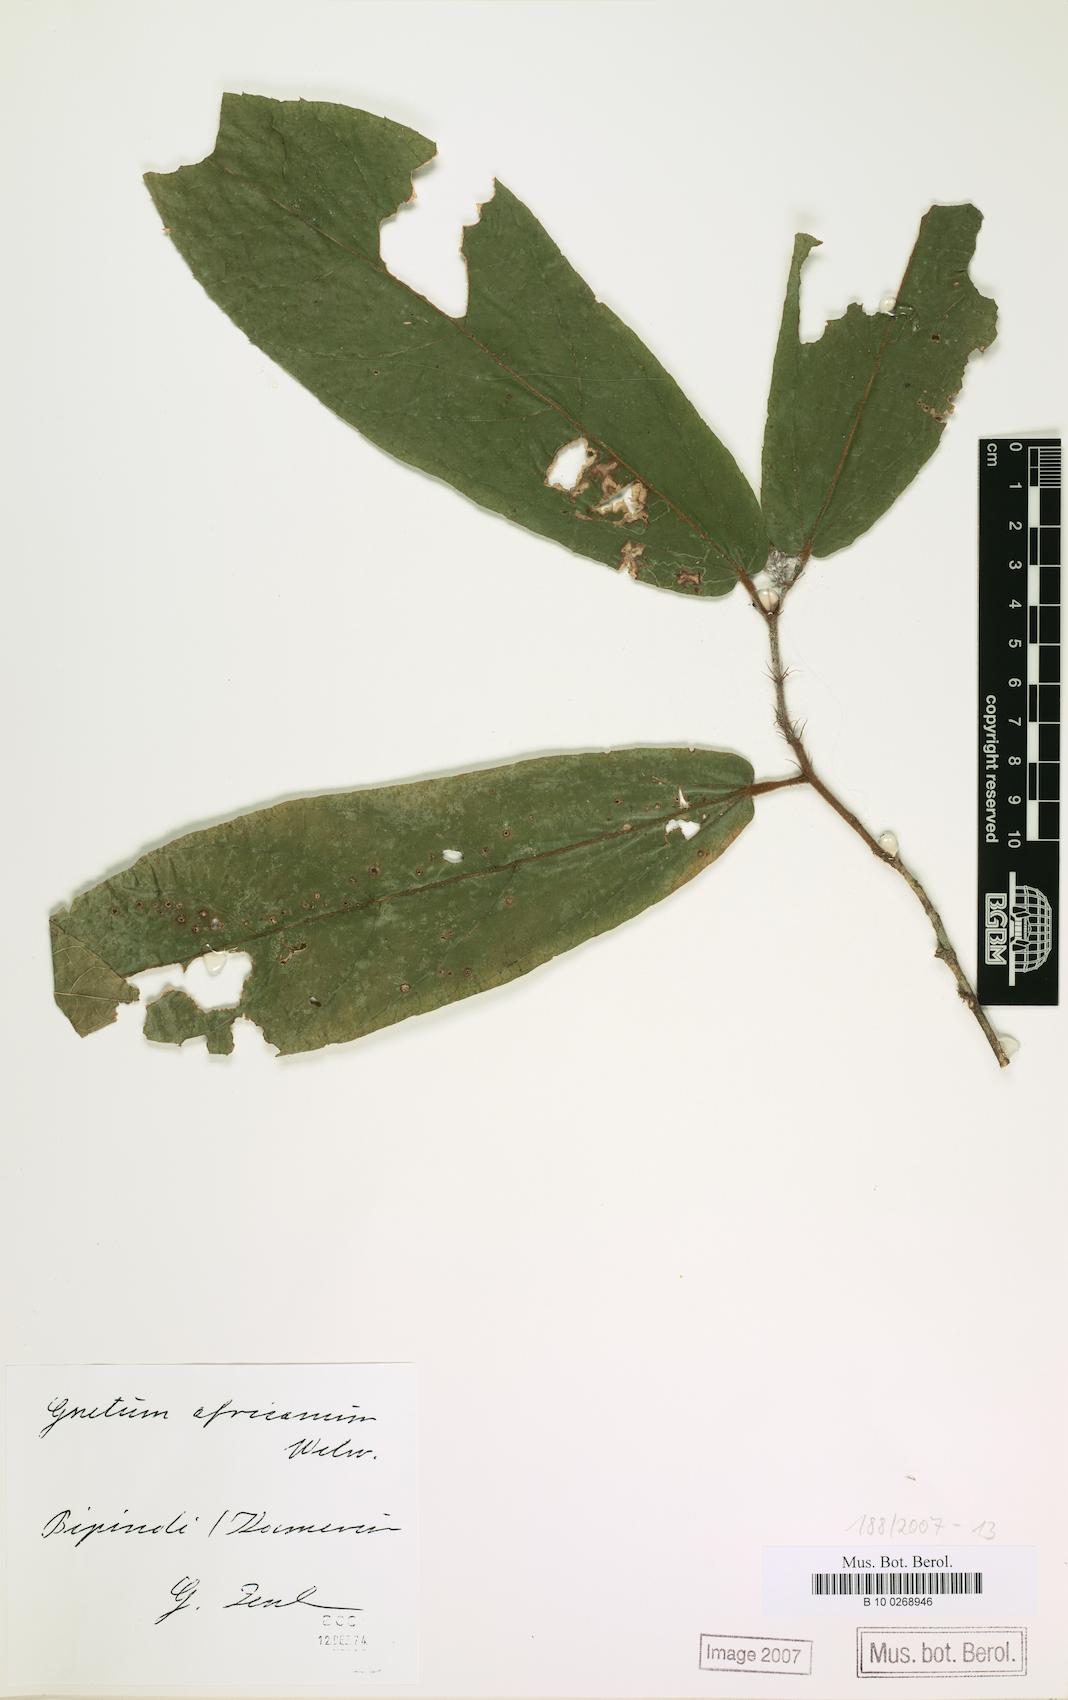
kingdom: Plantae
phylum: Tracheophyta
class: Gnetopsida
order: Gnetales
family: Gnetaceae
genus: Gnetum
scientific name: Gnetum africanum
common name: Eru
